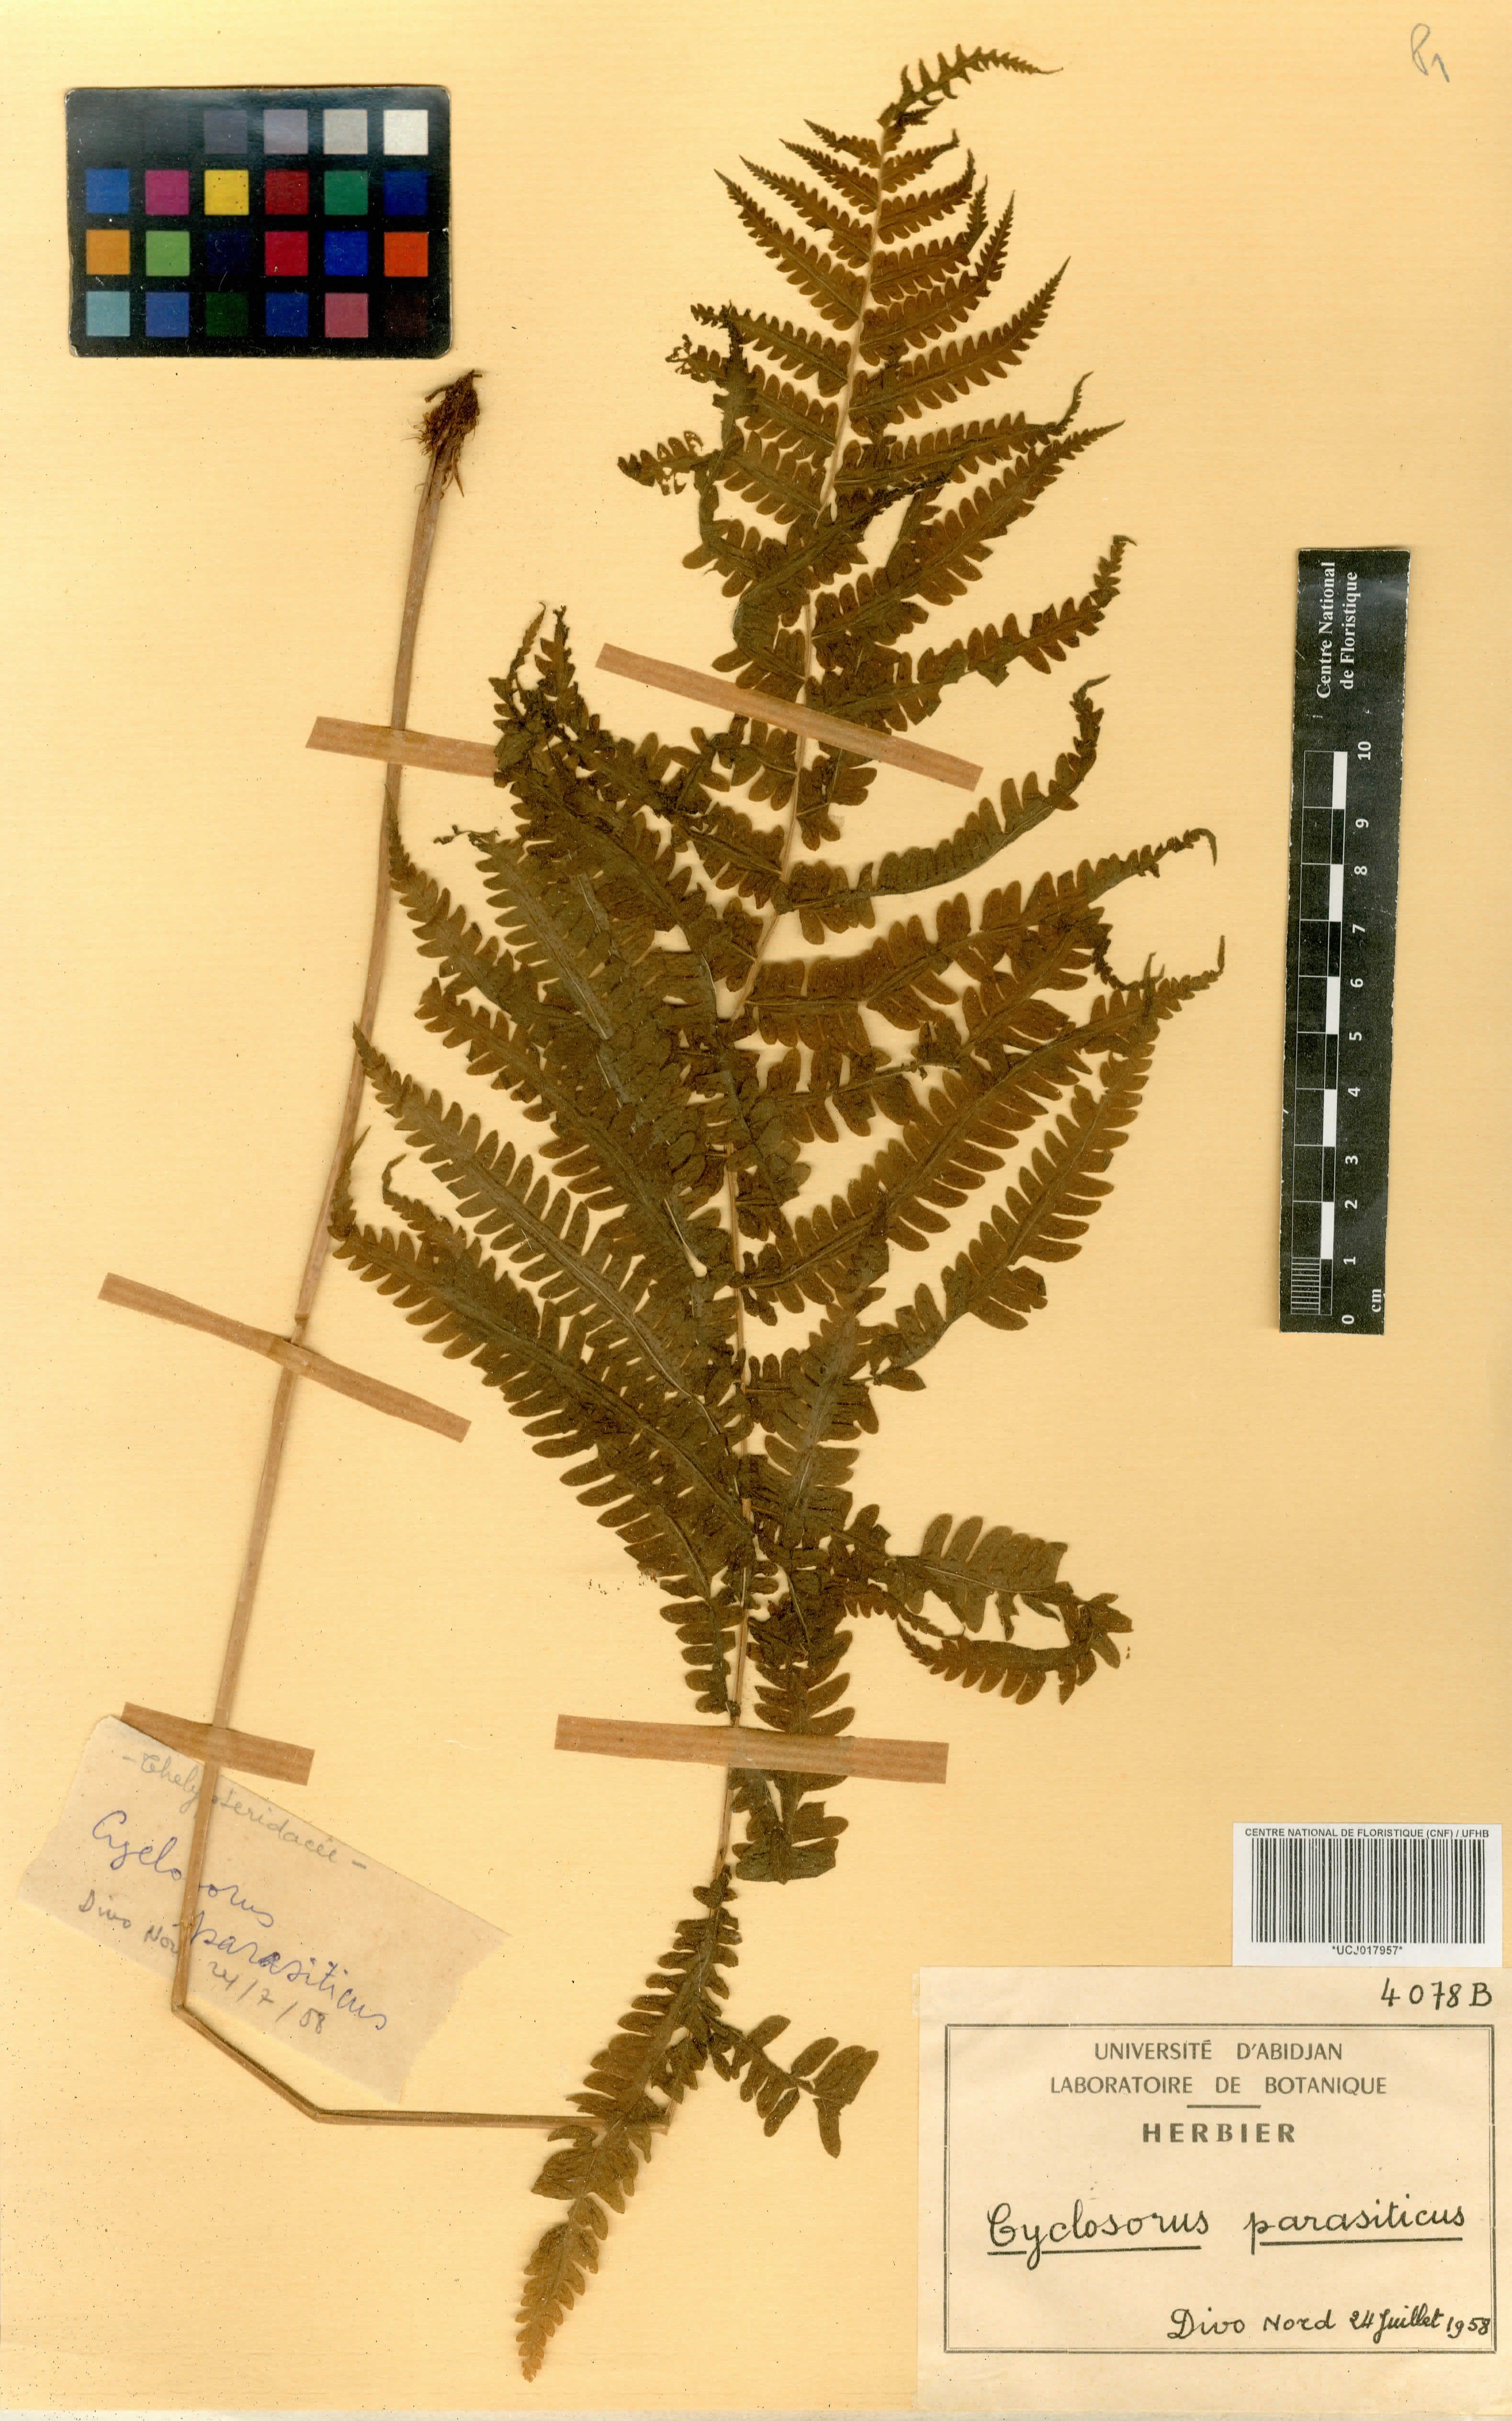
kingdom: Plantae
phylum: Tracheophyta
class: Polypodiopsida
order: Polypodiales
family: Thelypteridaceae
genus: Menisorus
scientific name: Menisorus oppositifolius
